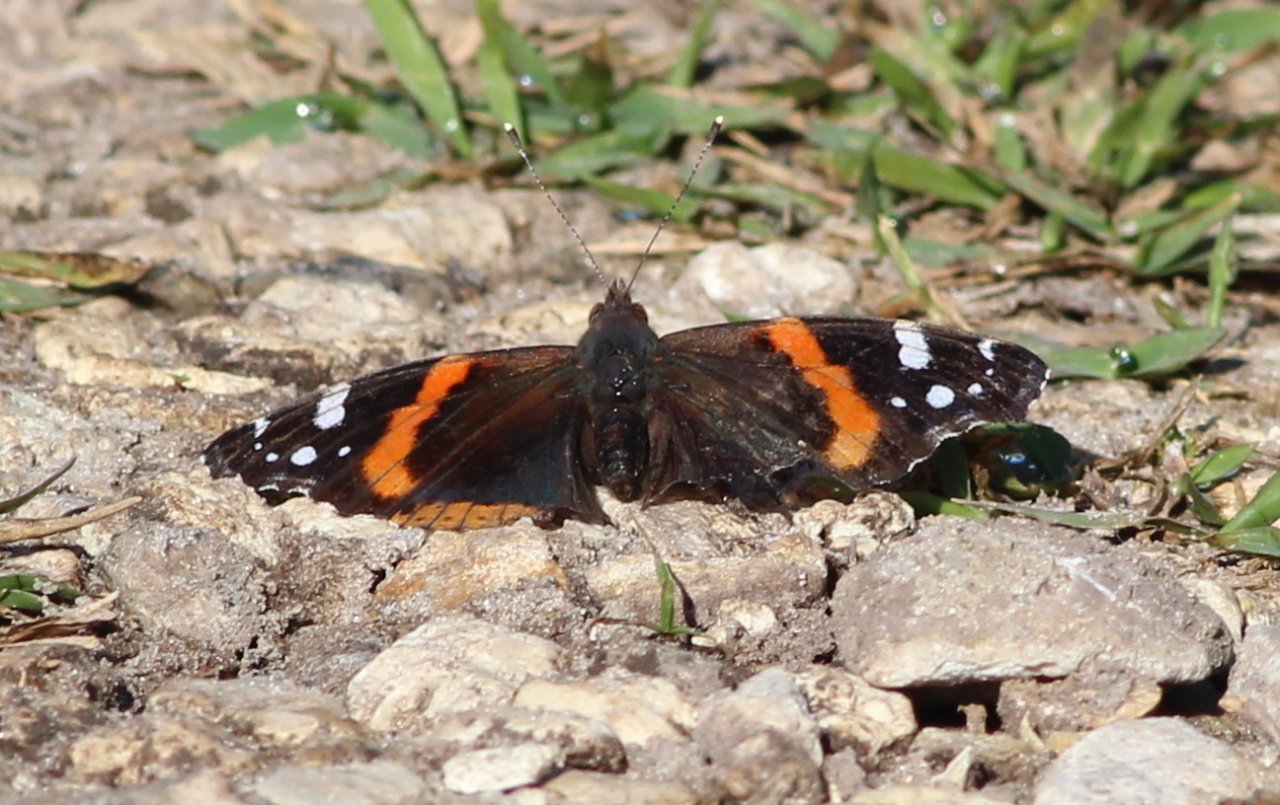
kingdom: Animalia
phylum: Arthropoda
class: Insecta
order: Lepidoptera
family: Nymphalidae
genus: Vanessa
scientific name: Vanessa atalanta
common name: Red Admiral
